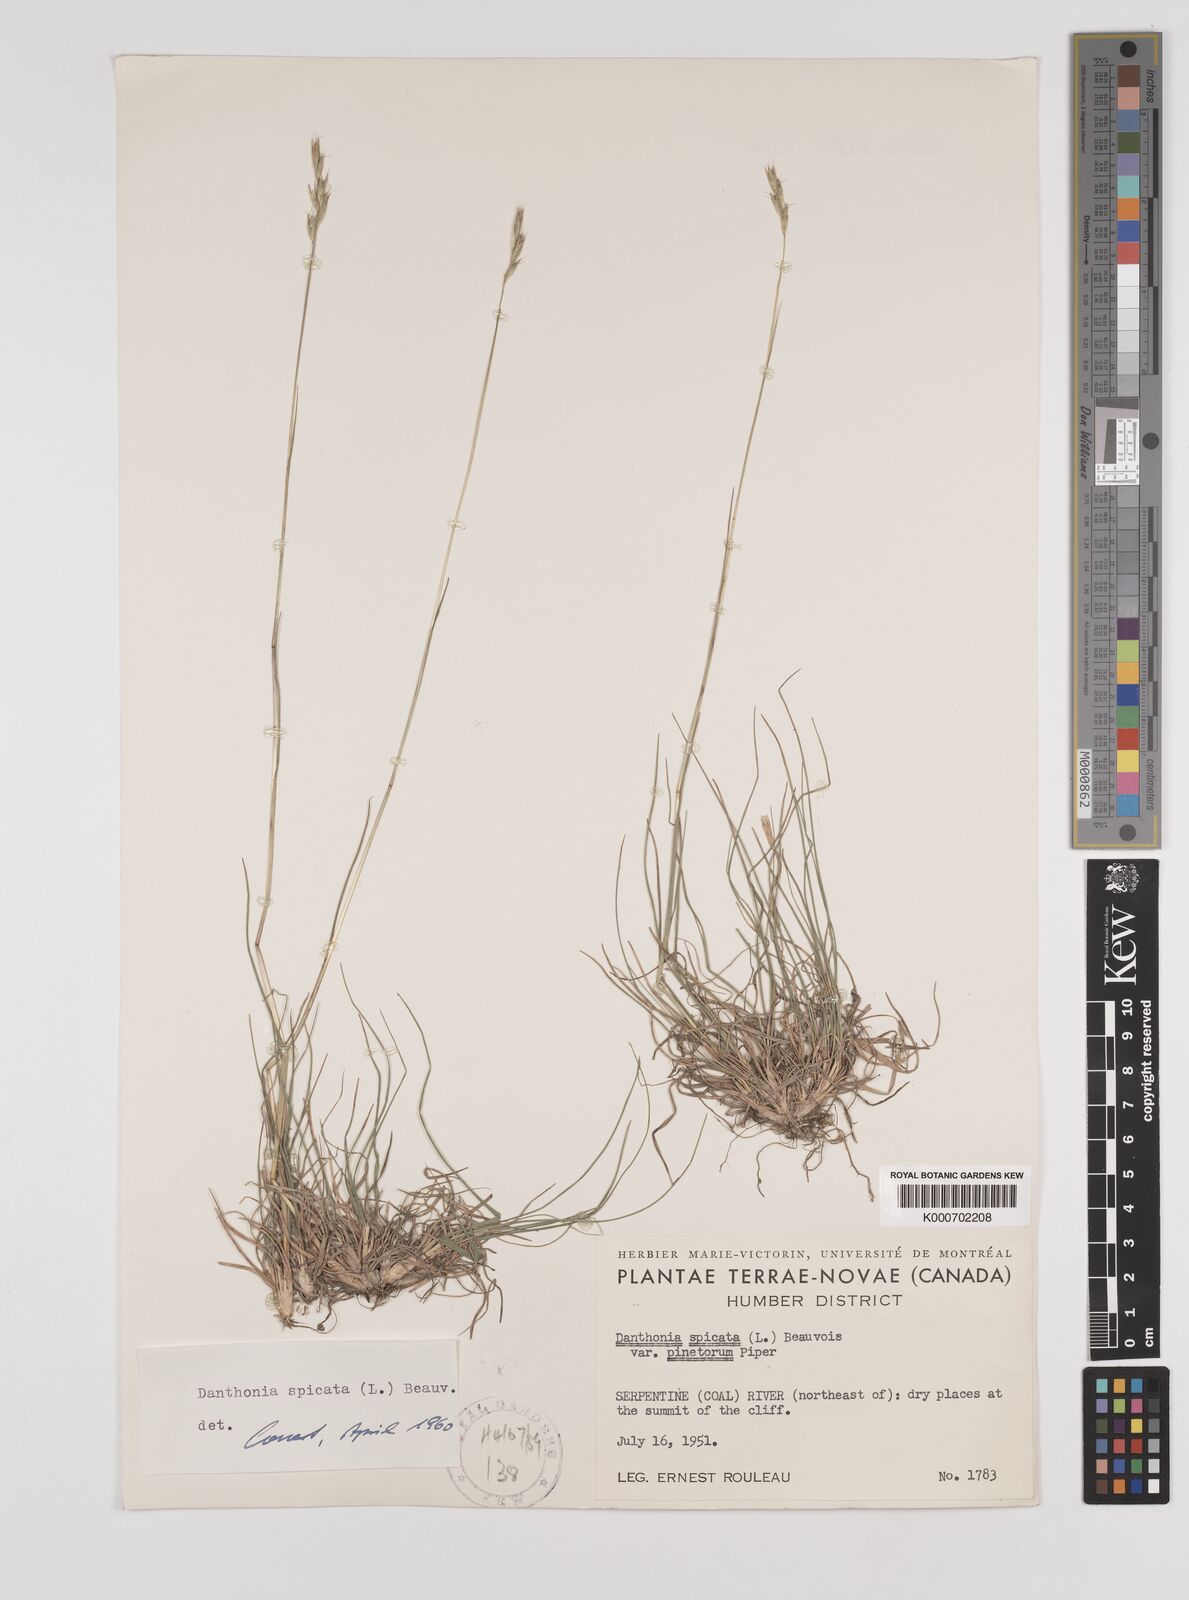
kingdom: Plantae
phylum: Tracheophyta
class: Liliopsida
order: Poales
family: Poaceae
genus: Danthonia
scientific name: Danthonia spicata
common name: Common wild oatgrass
